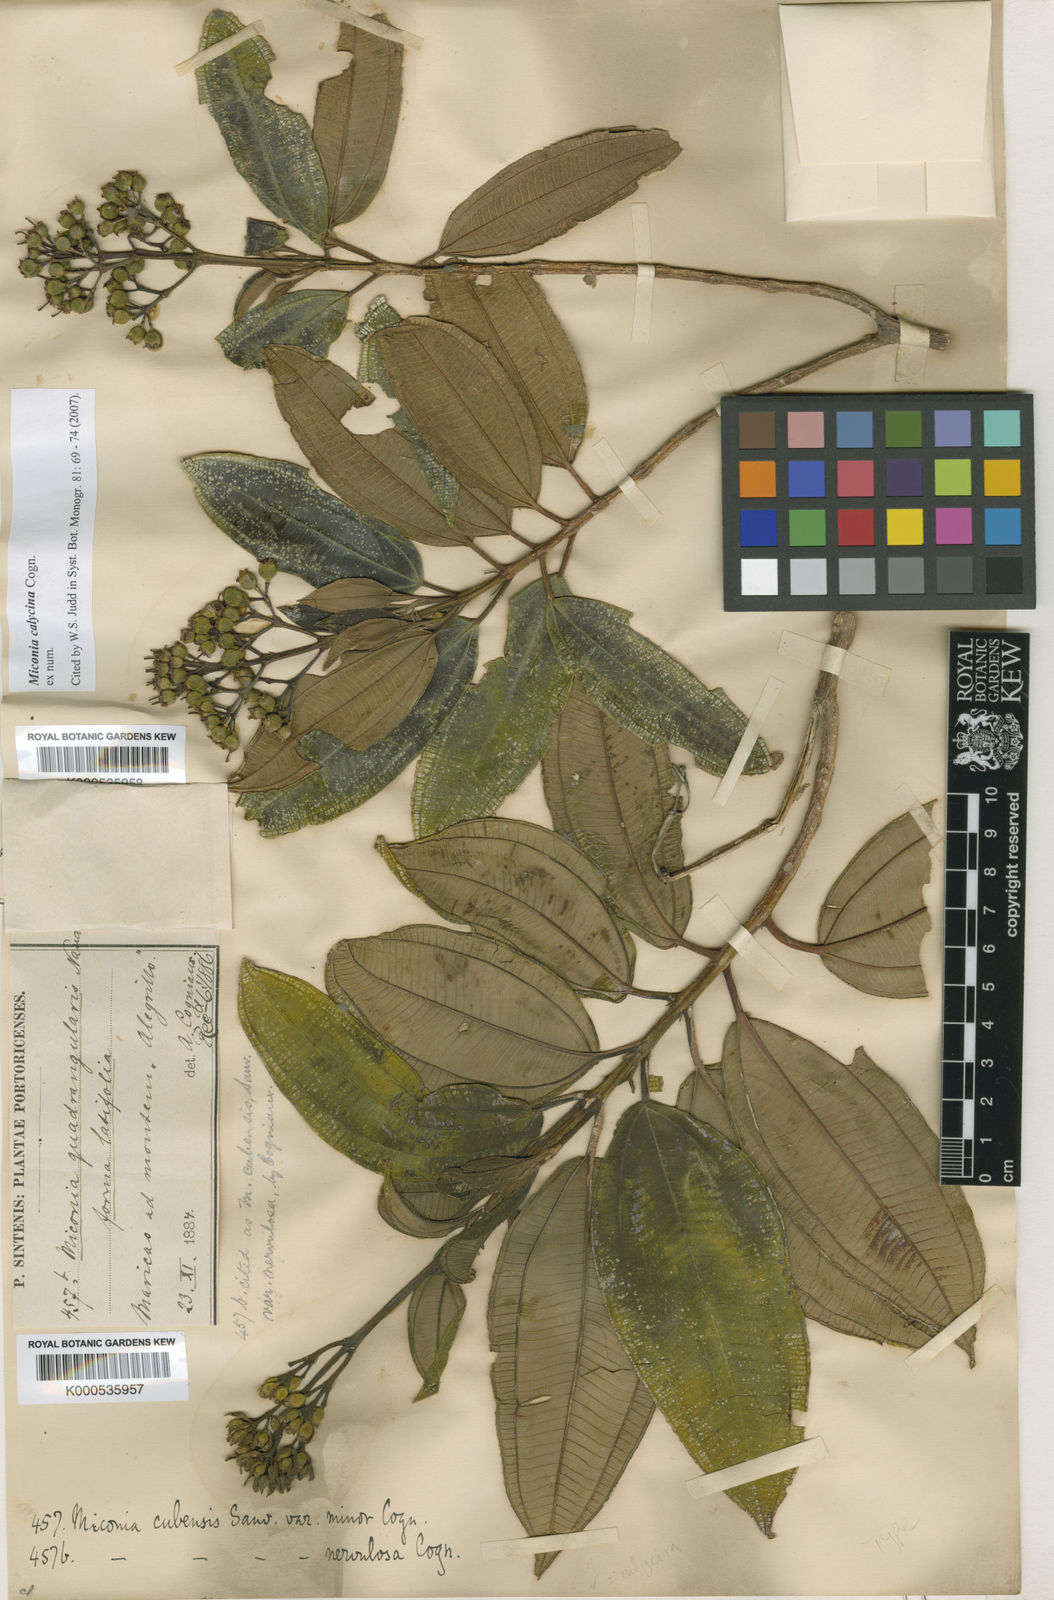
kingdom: Plantae
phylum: Tracheophyta
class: Magnoliopsida
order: Myrtales
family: Melastomataceae
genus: Miconia
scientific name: Miconia calycina
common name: Forest johnnyberry
